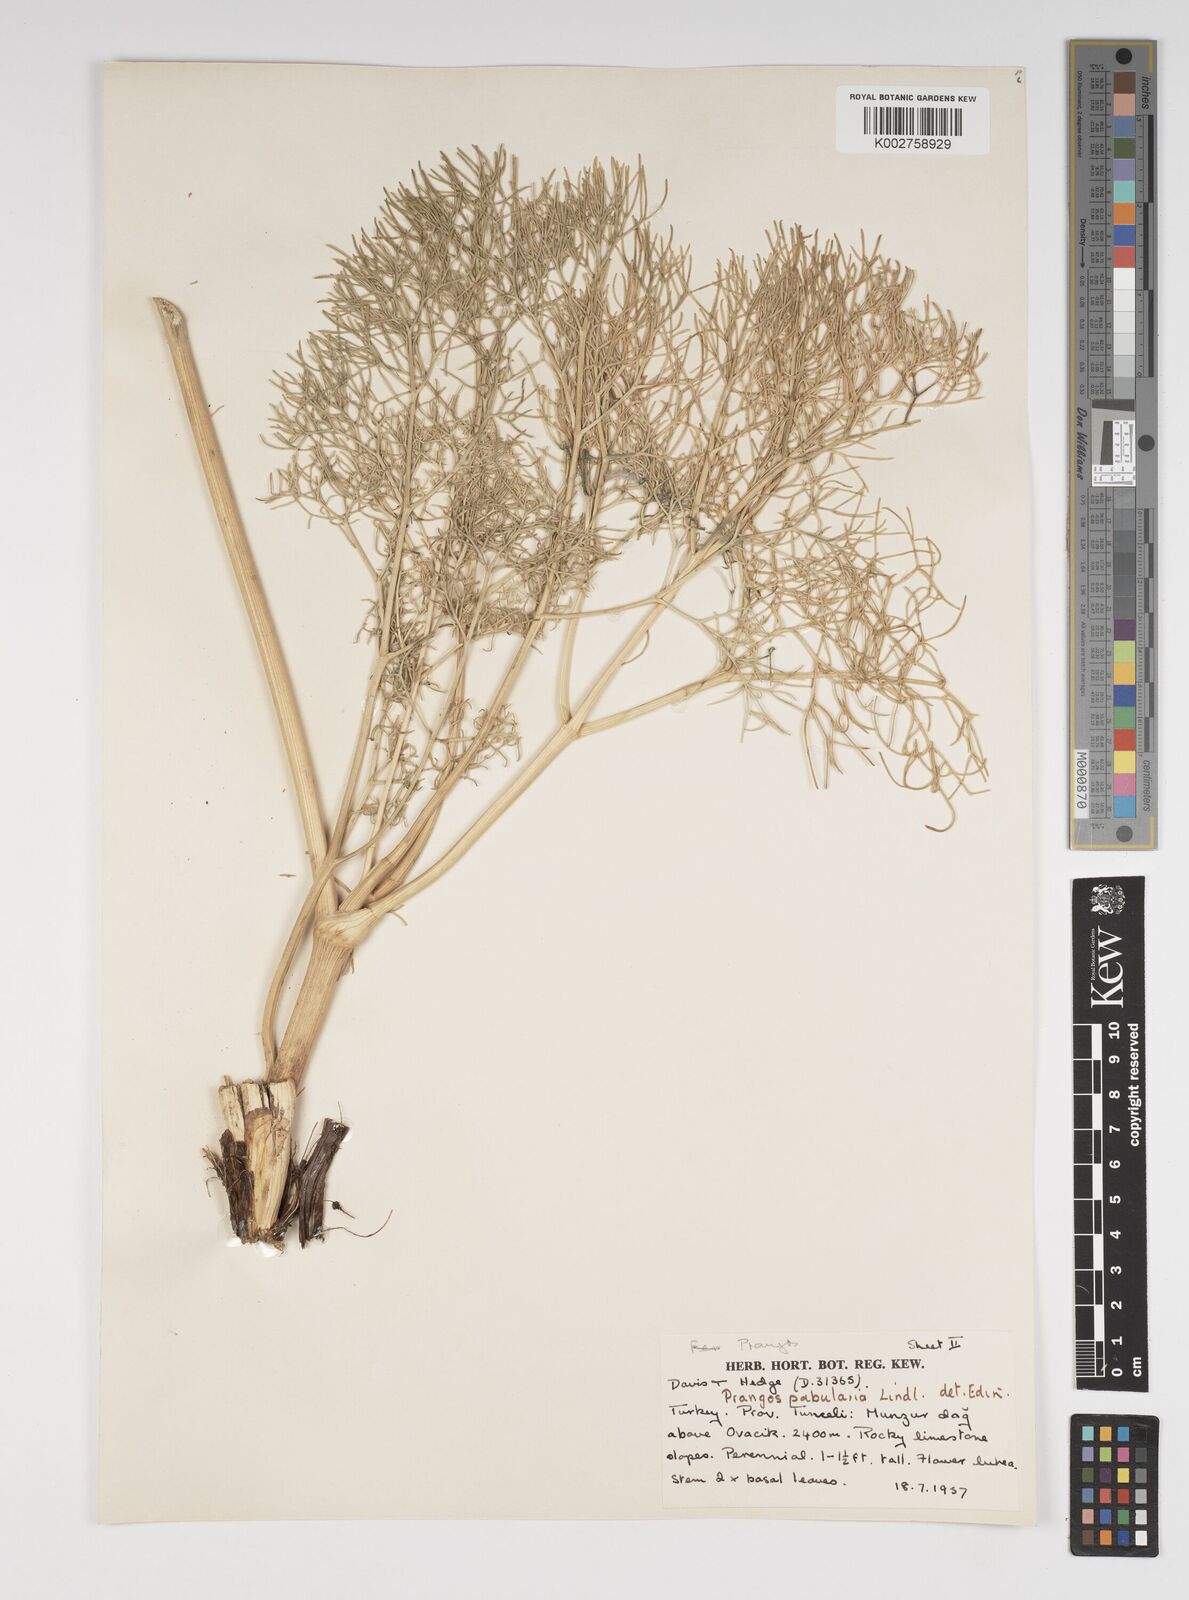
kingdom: Plantae
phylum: Tracheophyta
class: Magnoliopsida
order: Apiales
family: Apiaceae
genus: Prangos
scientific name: Prangos pabularia
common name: Yugan
